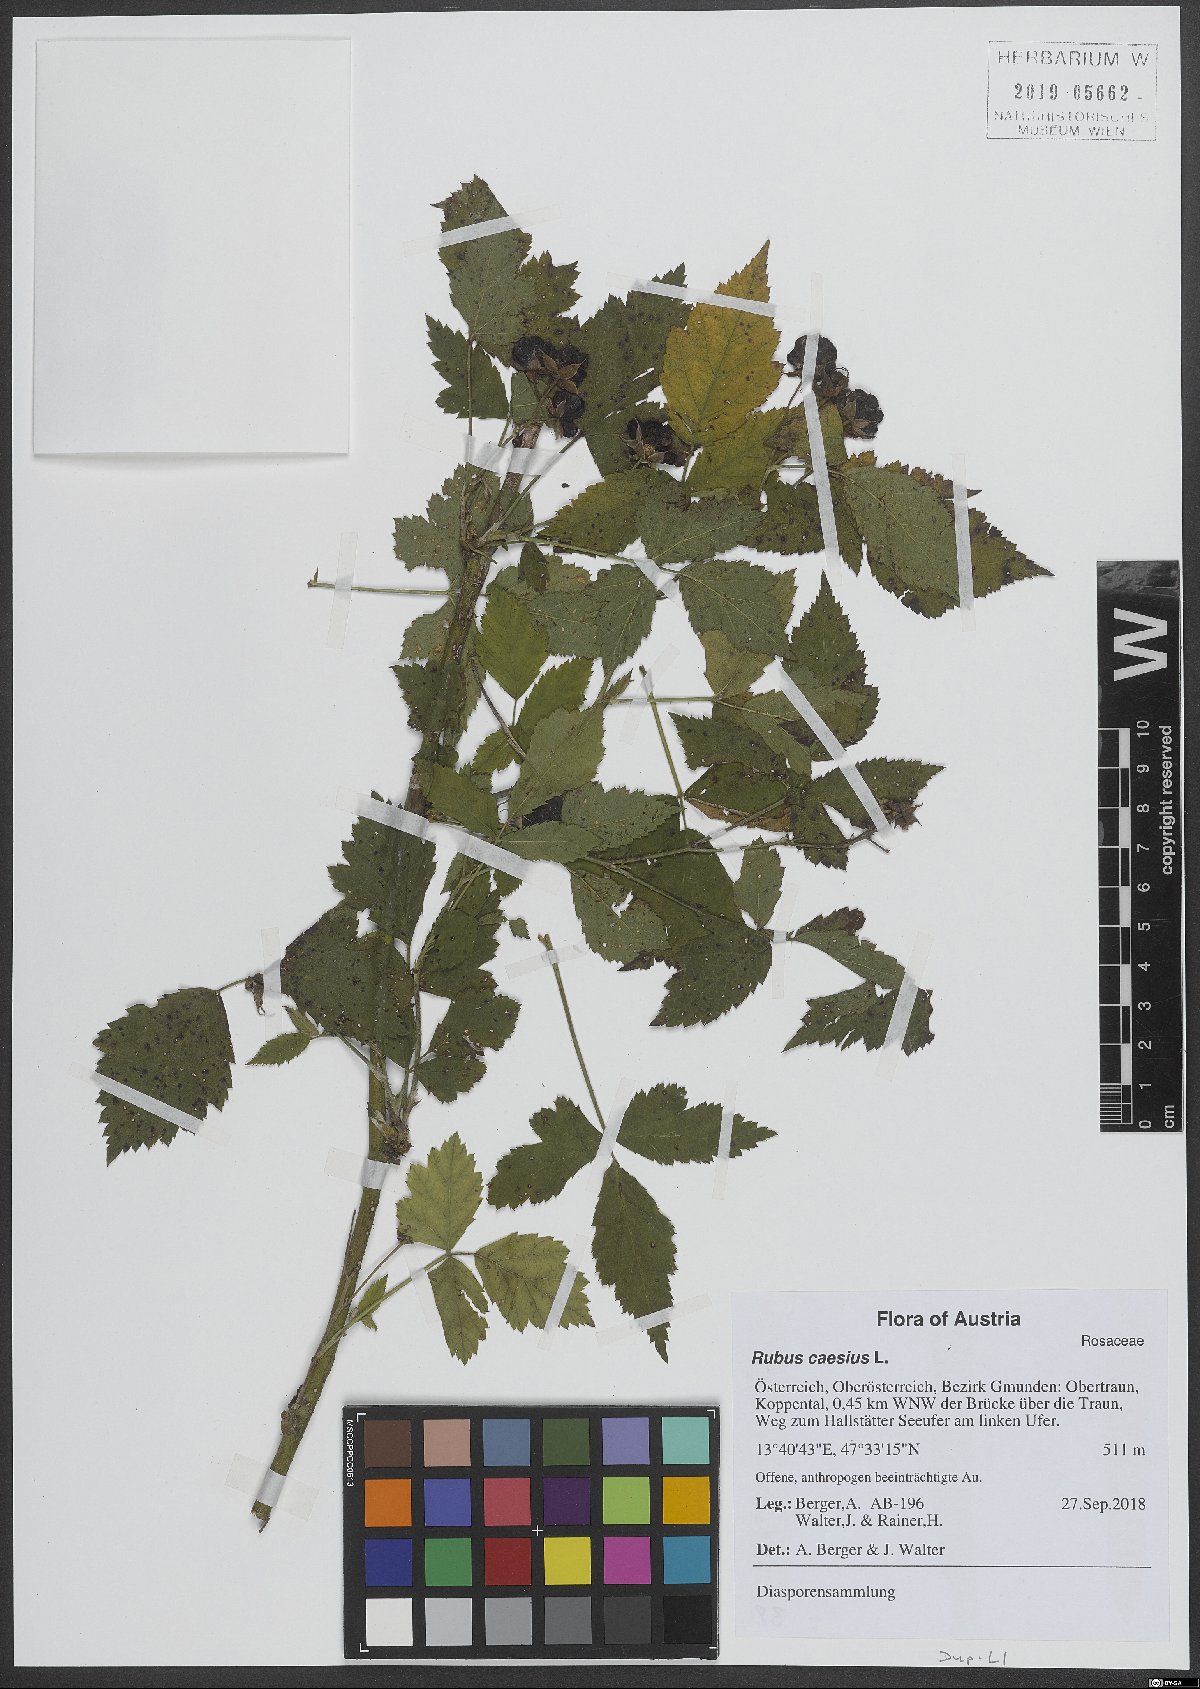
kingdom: Plantae
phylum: Tracheophyta
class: Magnoliopsida
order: Rosales
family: Rosaceae
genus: Rubus
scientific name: Rubus caesius
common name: Dewberry
